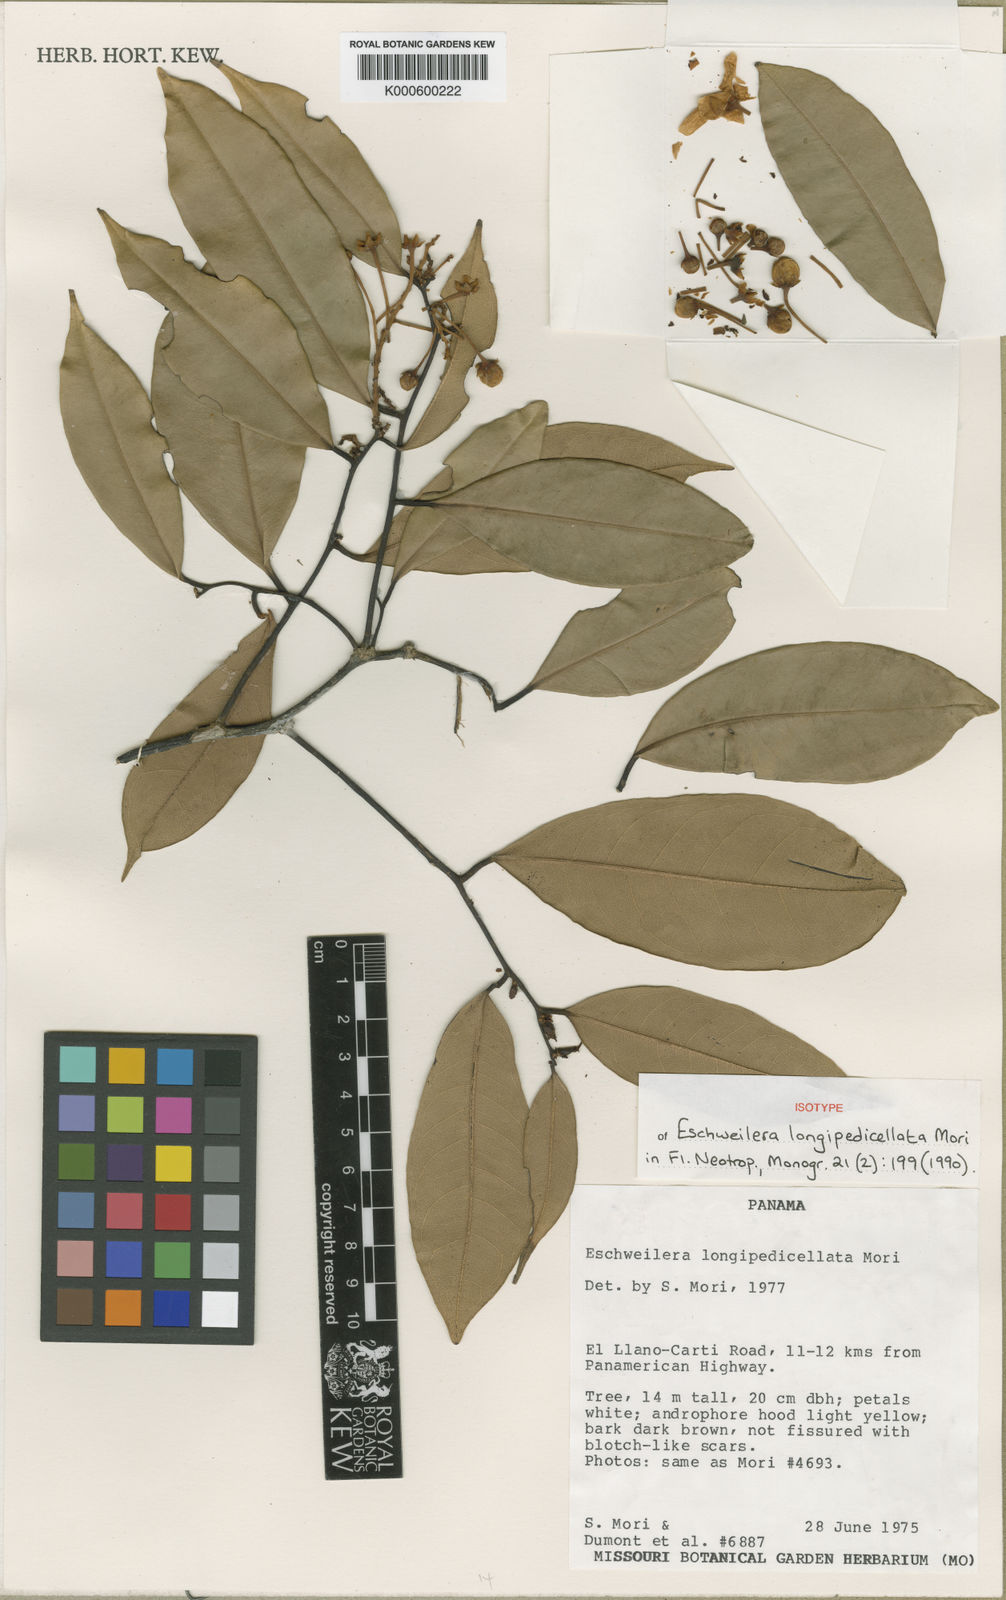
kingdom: Plantae
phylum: Tracheophyta
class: Magnoliopsida
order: Ericales
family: Lecythidaceae
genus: Eschweilera
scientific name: Eschweilera longipedicellata
